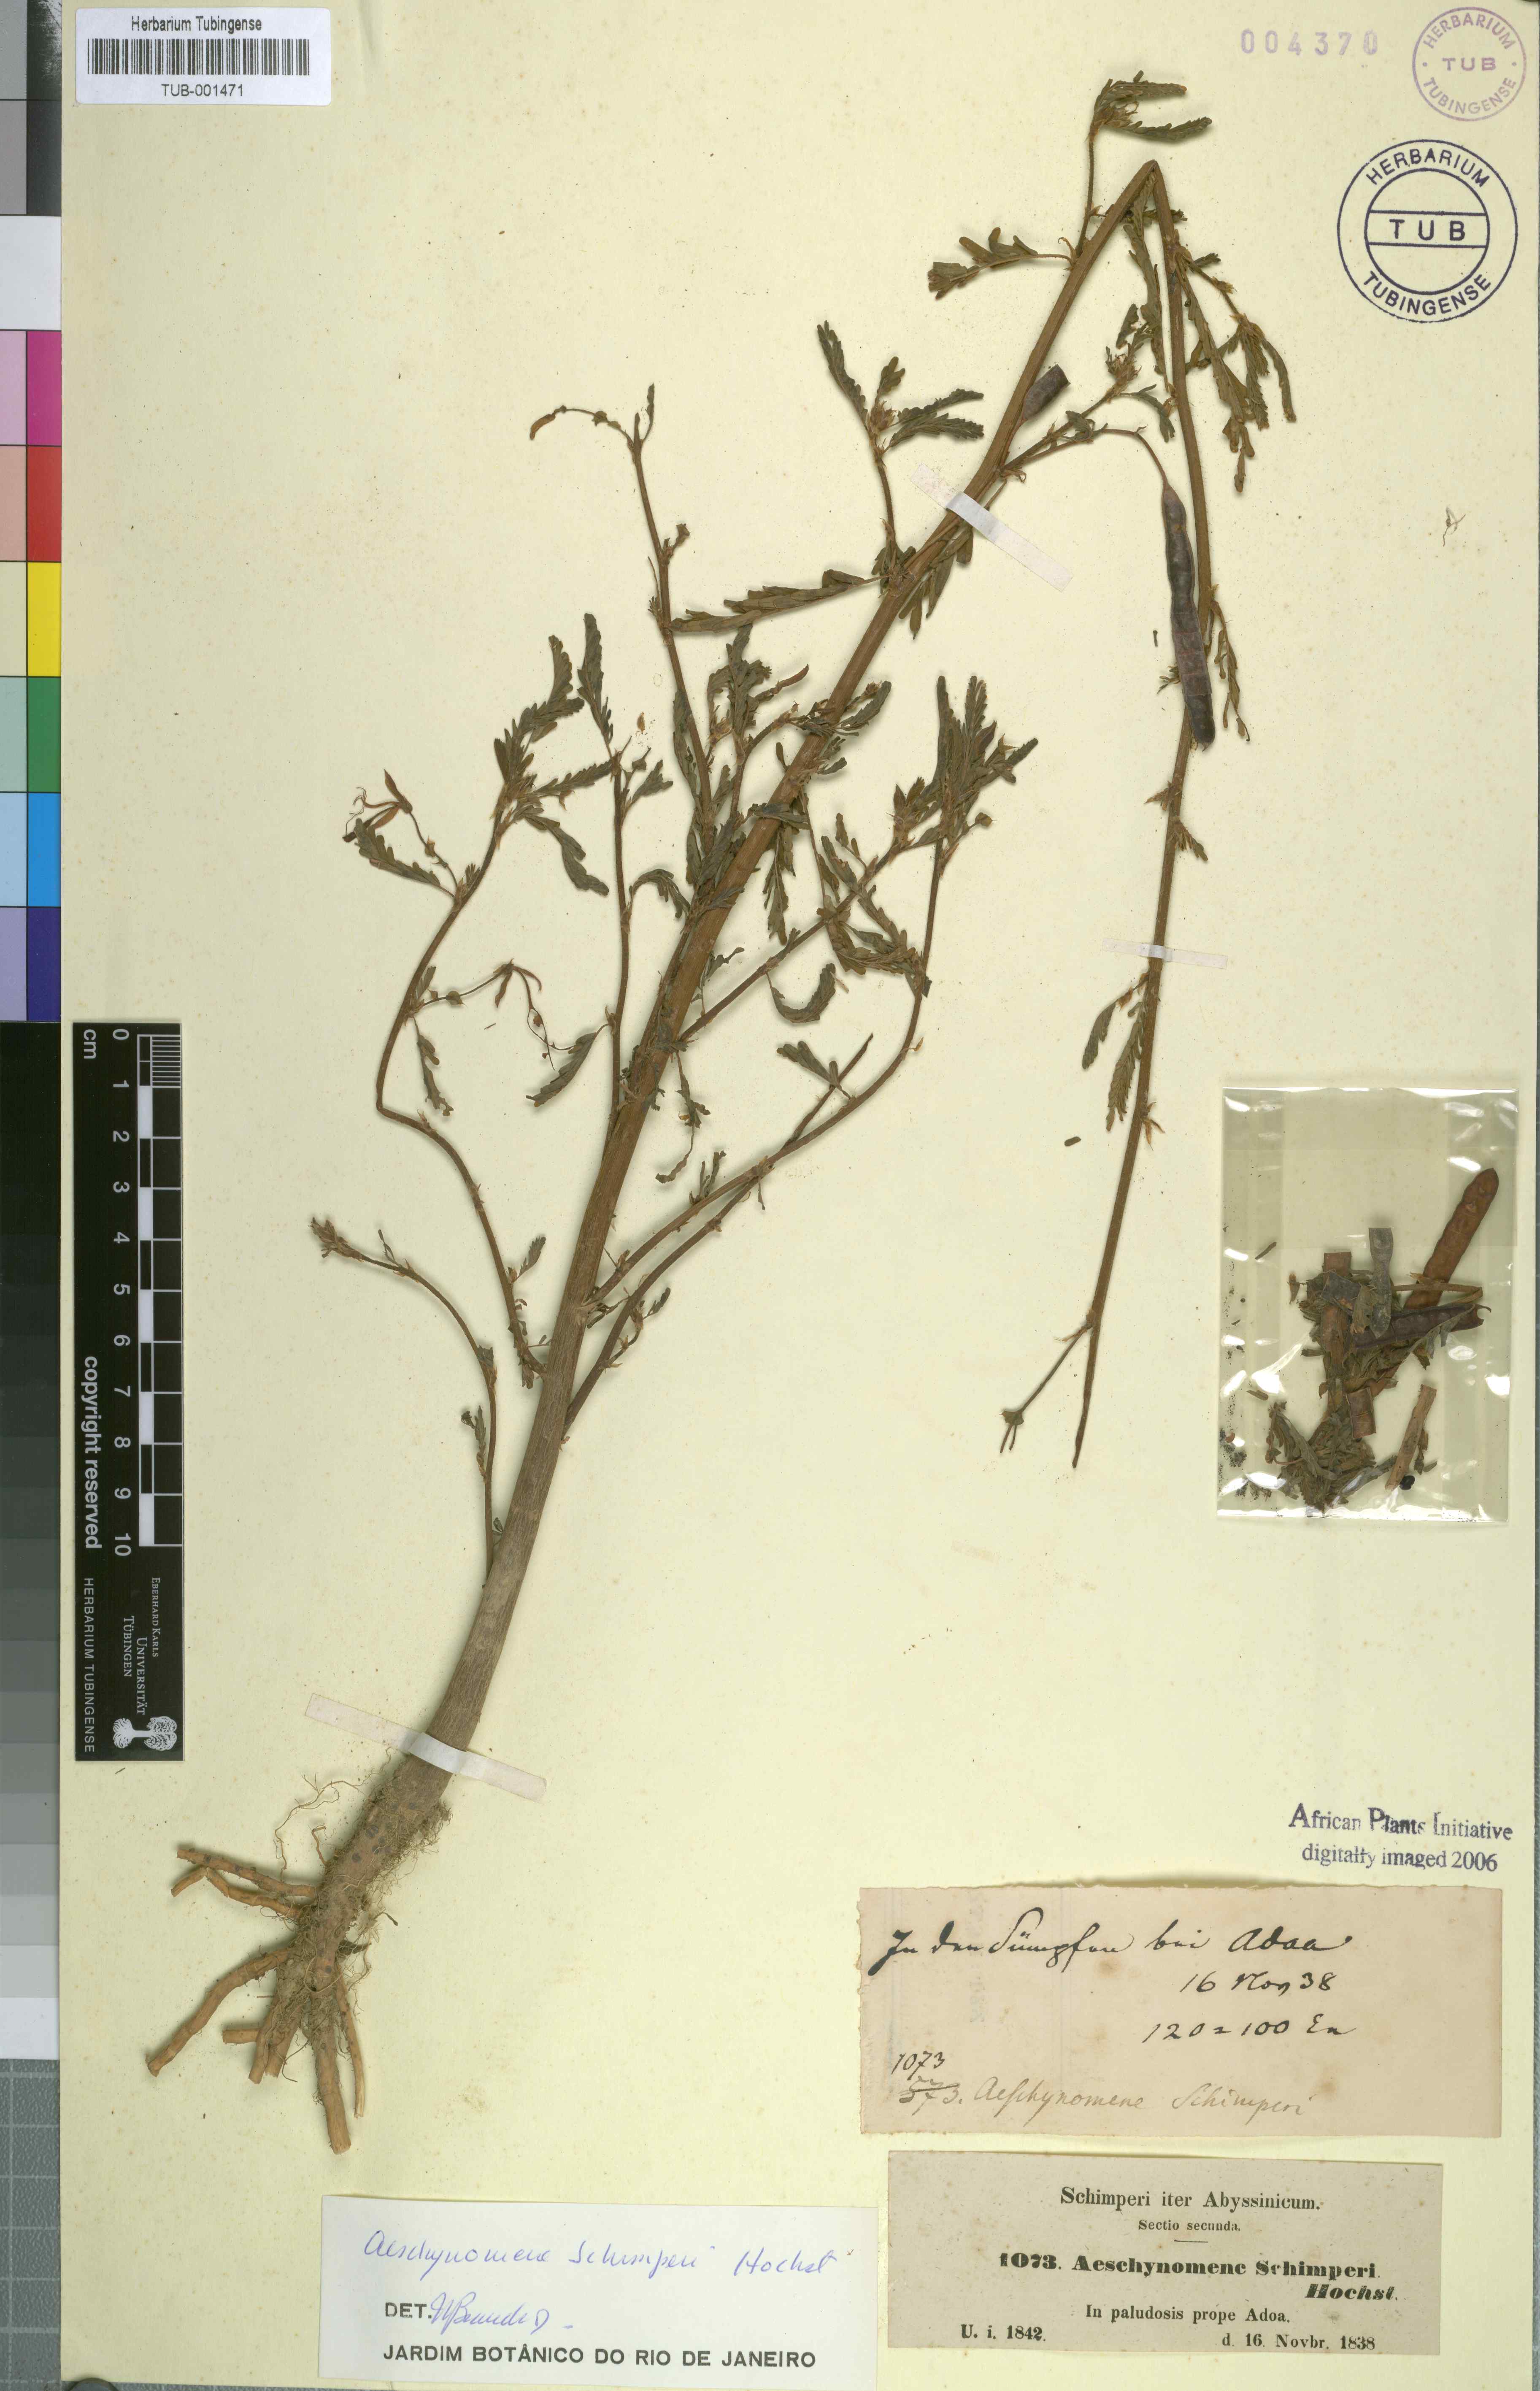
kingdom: Plantae
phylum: Tracheophyta
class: Magnoliopsida
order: Fabales
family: Fabaceae
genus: Aeschynomene
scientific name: Aeschynomene schimperi
